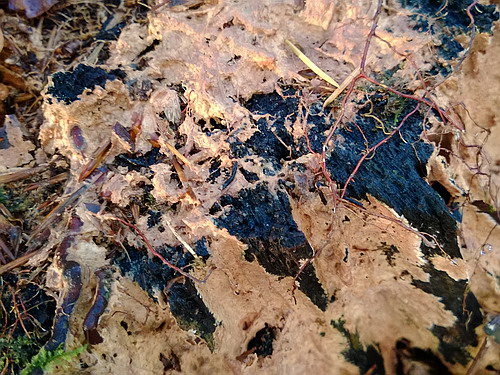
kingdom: Fungi
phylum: Basidiomycota
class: Agaricomycetes
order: Polyporales
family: Phanerochaetaceae
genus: Rhizochaete
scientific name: Rhizochaete radicata
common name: orangebrun randtråd
